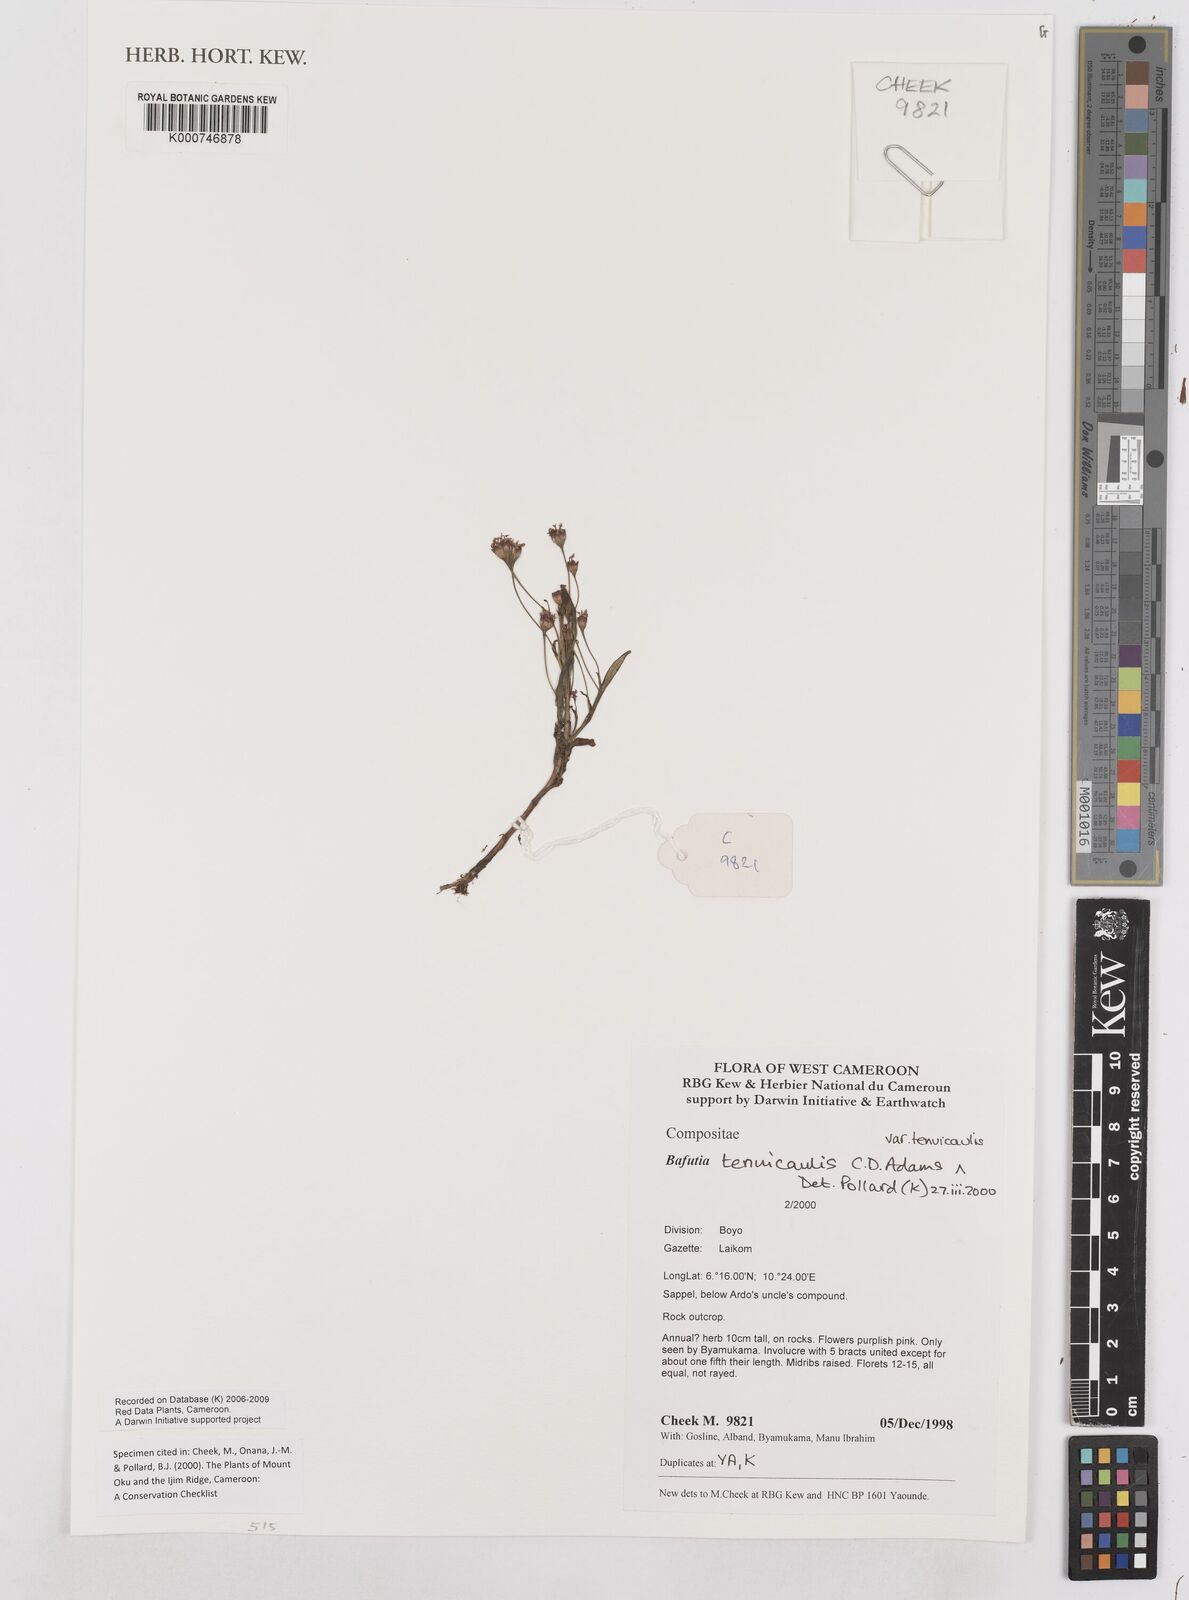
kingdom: Plantae
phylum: Tracheophyta
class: Magnoliopsida
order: Asterales
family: Asteraceae
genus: Emilia
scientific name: Emilia tenuicaulis
